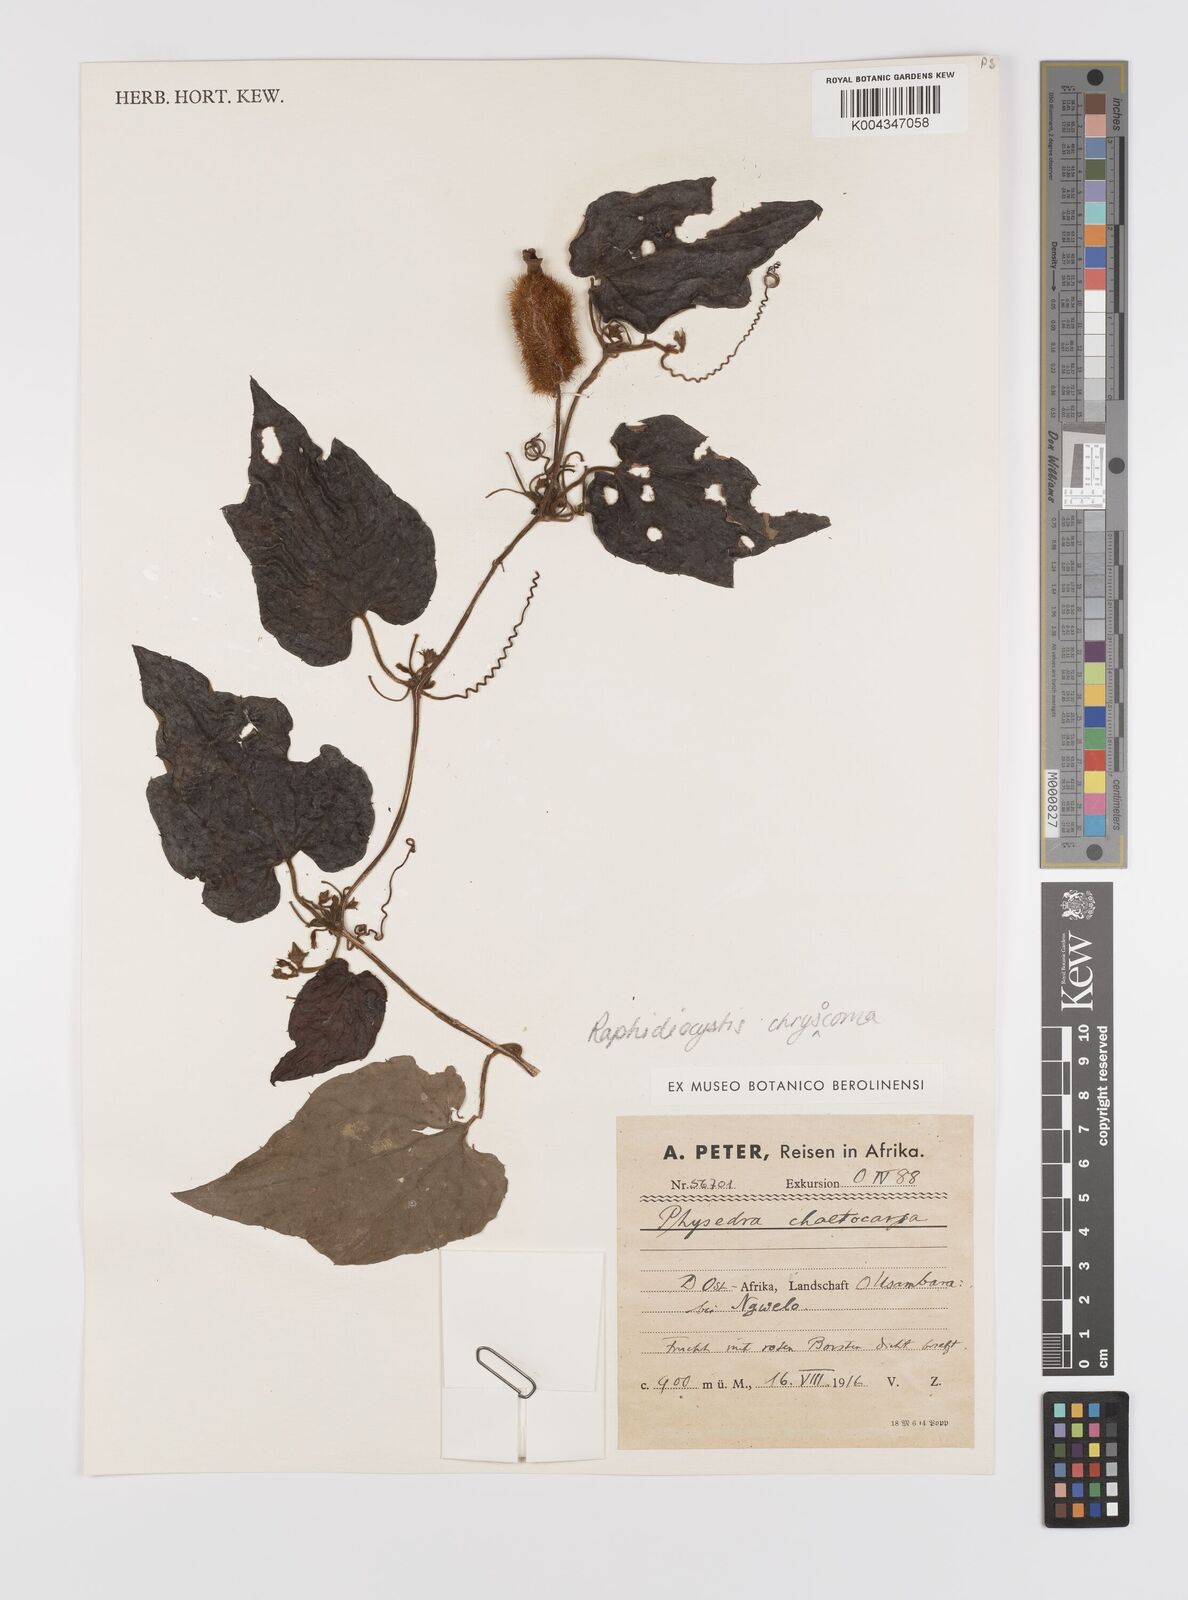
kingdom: Plantae
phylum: Tracheophyta
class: Magnoliopsida
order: Cucurbitales
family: Cucurbitaceae
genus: Raphidiocystis
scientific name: Raphidiocystis chrysocoma
